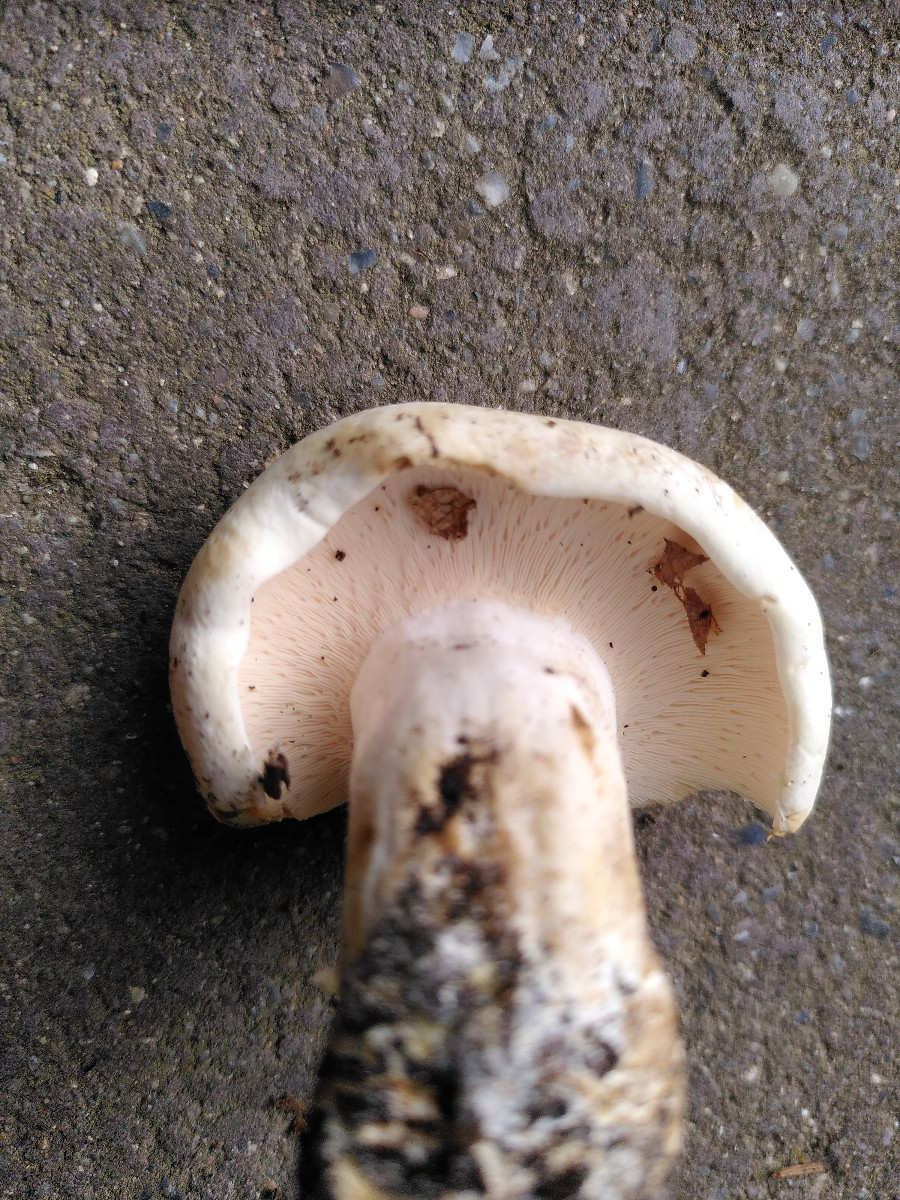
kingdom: Fungi
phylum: Basidiomycota
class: Agaricomycetes
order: Russulales
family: Russulaceae
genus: Lactarius
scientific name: Lactarius controversus
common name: rosabladet mælkehat
